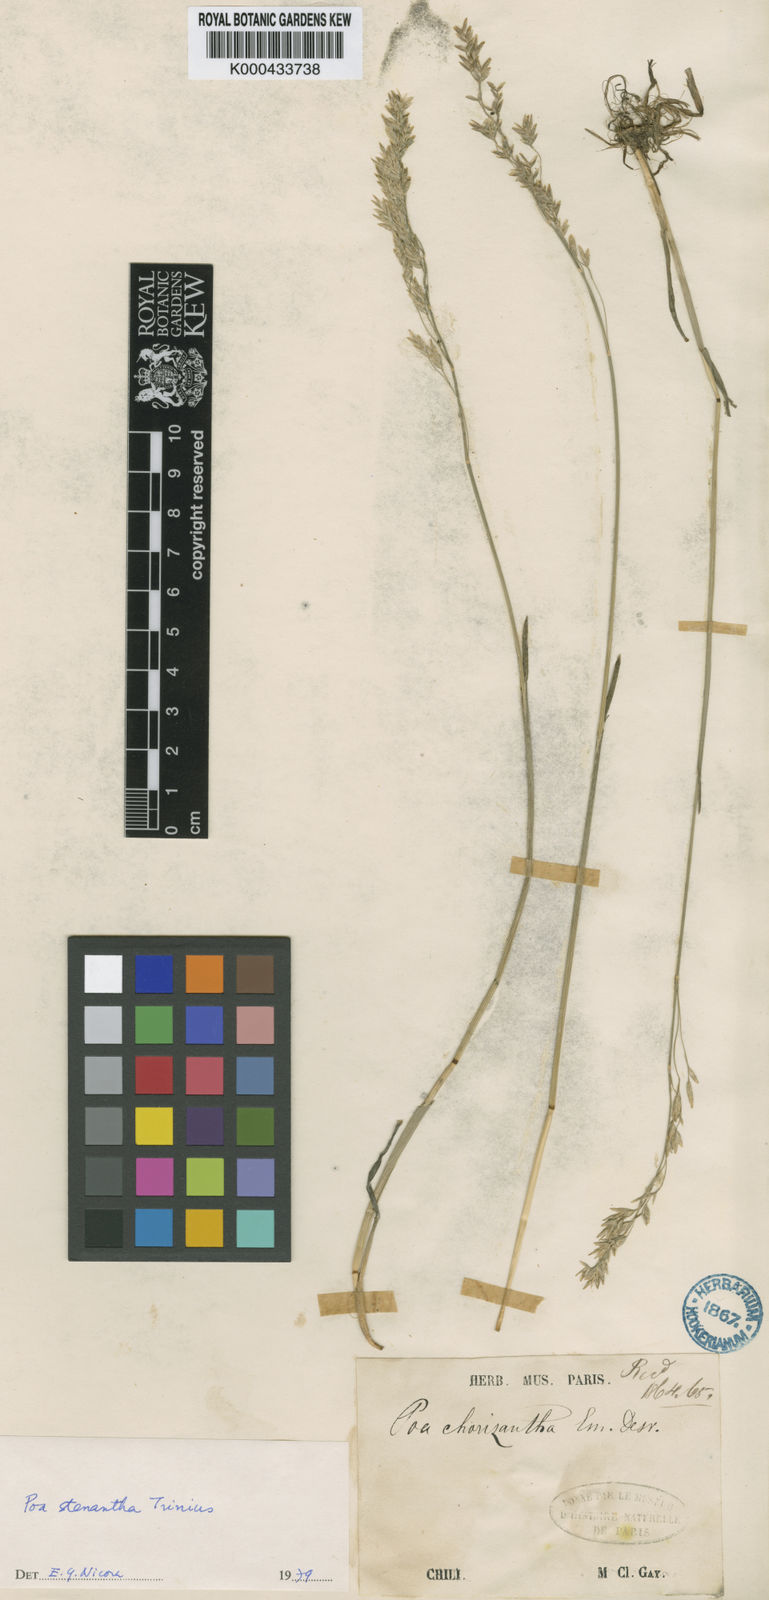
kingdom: Plantae
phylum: Tracheophyta
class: Liliopsida
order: Poales
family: Poaceae
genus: Poa
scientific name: Poa stenantha
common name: Narrow-flowered bluegrass
